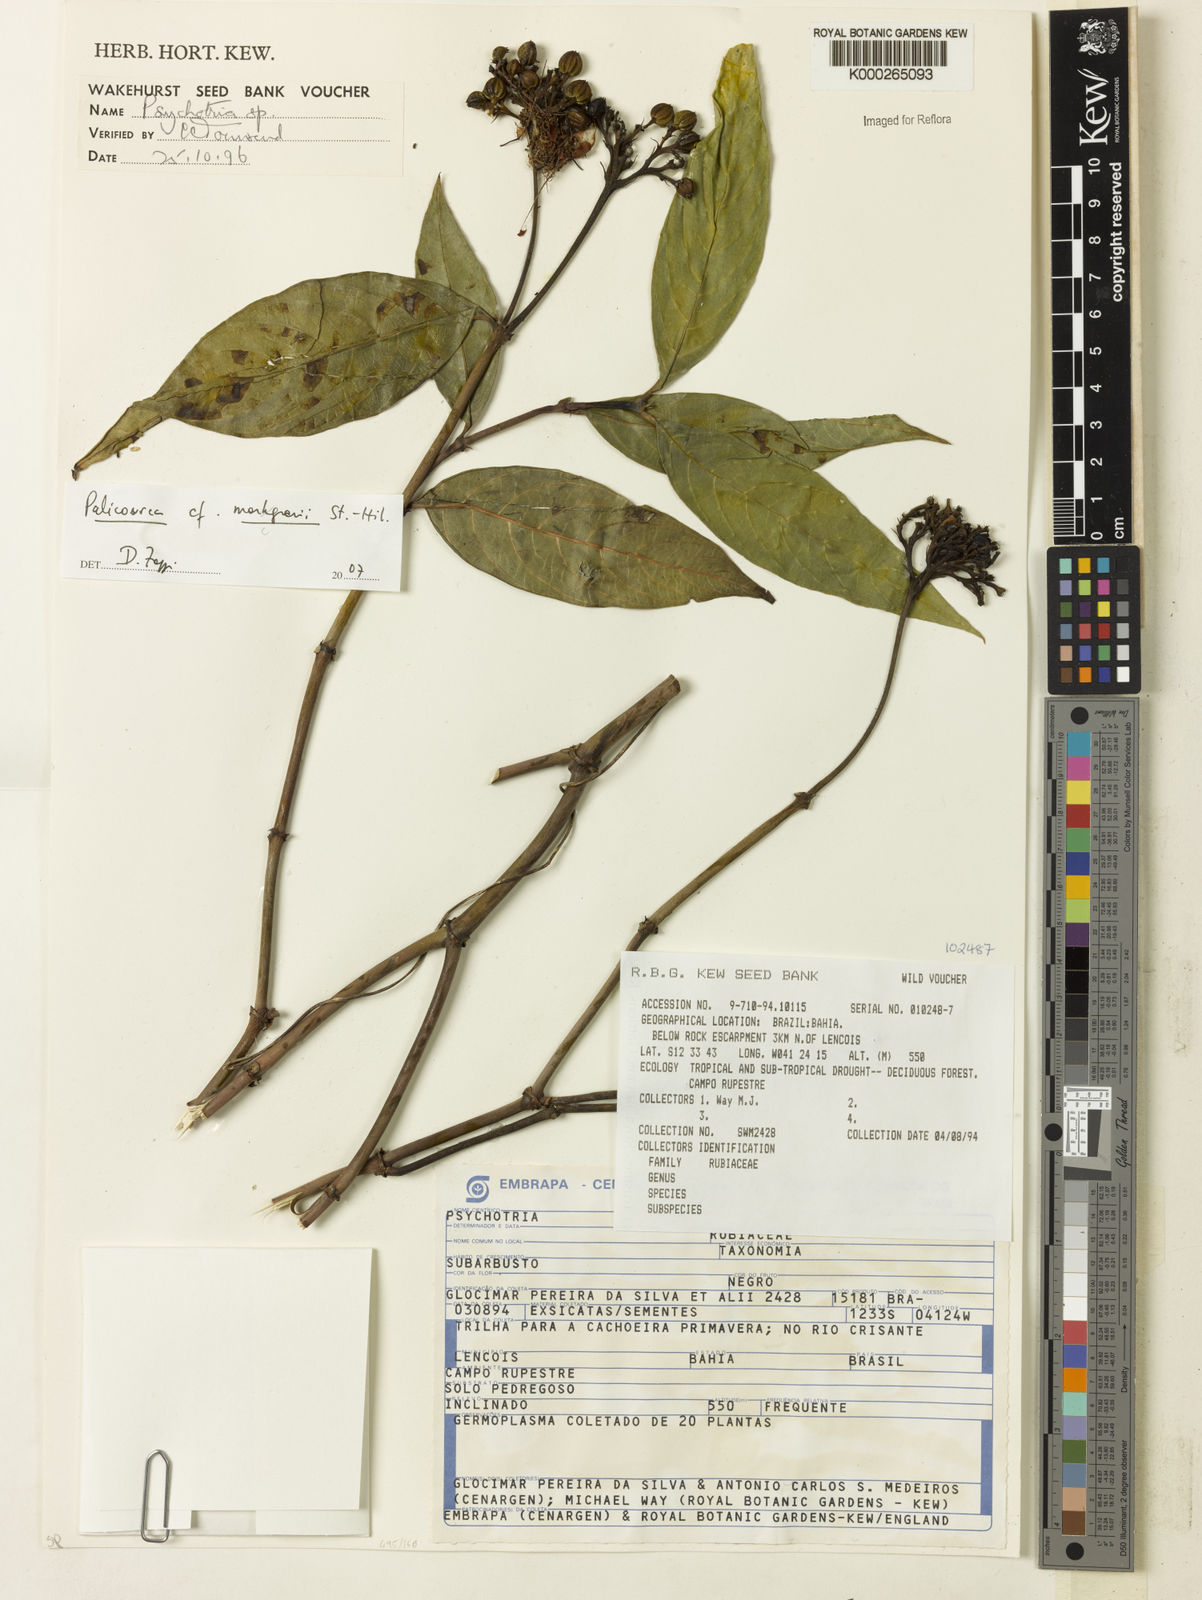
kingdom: Plantae
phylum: Tracheophyta
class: Magnoliopsida
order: Gentianales
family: Rubiaceae
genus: Psychotria
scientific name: Psychotria
